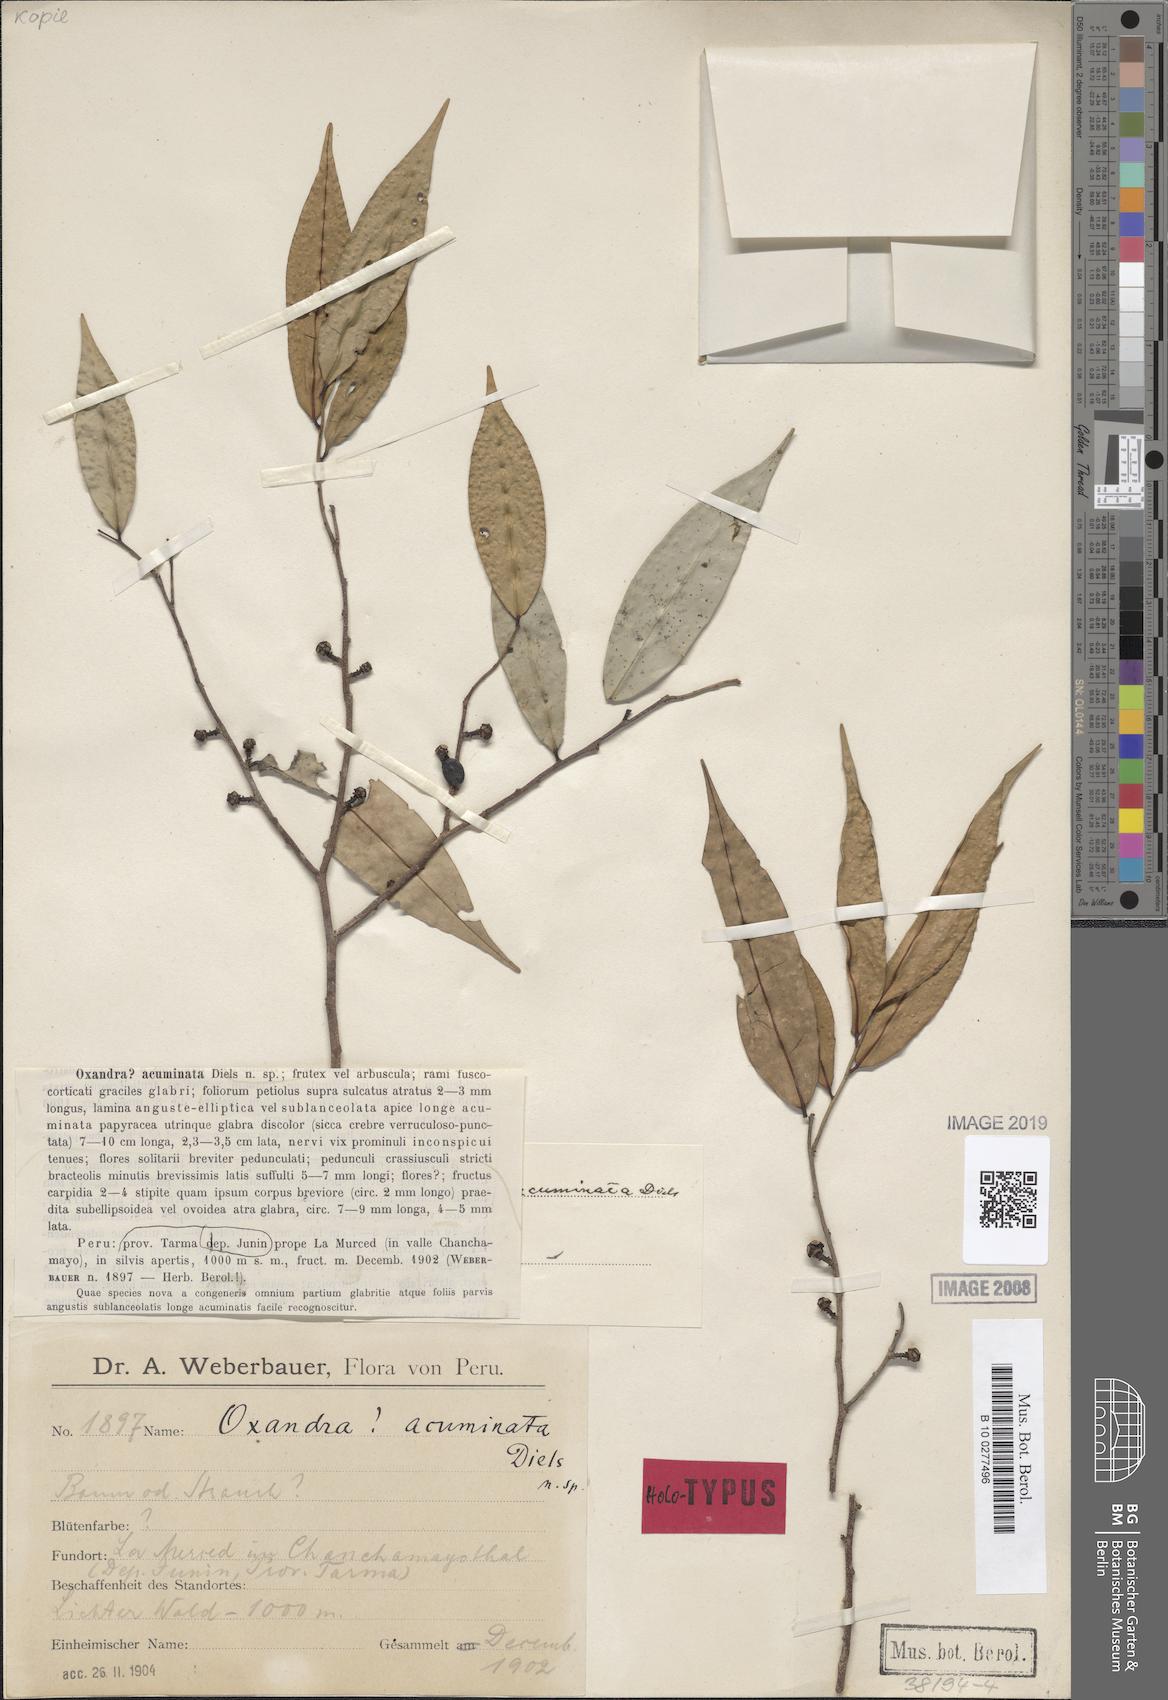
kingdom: Plantae
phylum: Tracheophyta
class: Magnoliopsida
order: Magnoliales
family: Annonaceae
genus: Oxandra
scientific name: Oxandra mediocris
